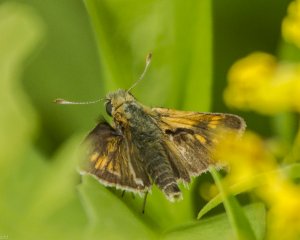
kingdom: Animalia
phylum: Arthropoda
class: Insecta
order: Lepidoptera
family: Hesperiidae
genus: Polites
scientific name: Polites themistocles
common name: Tawny-edged Skipper
